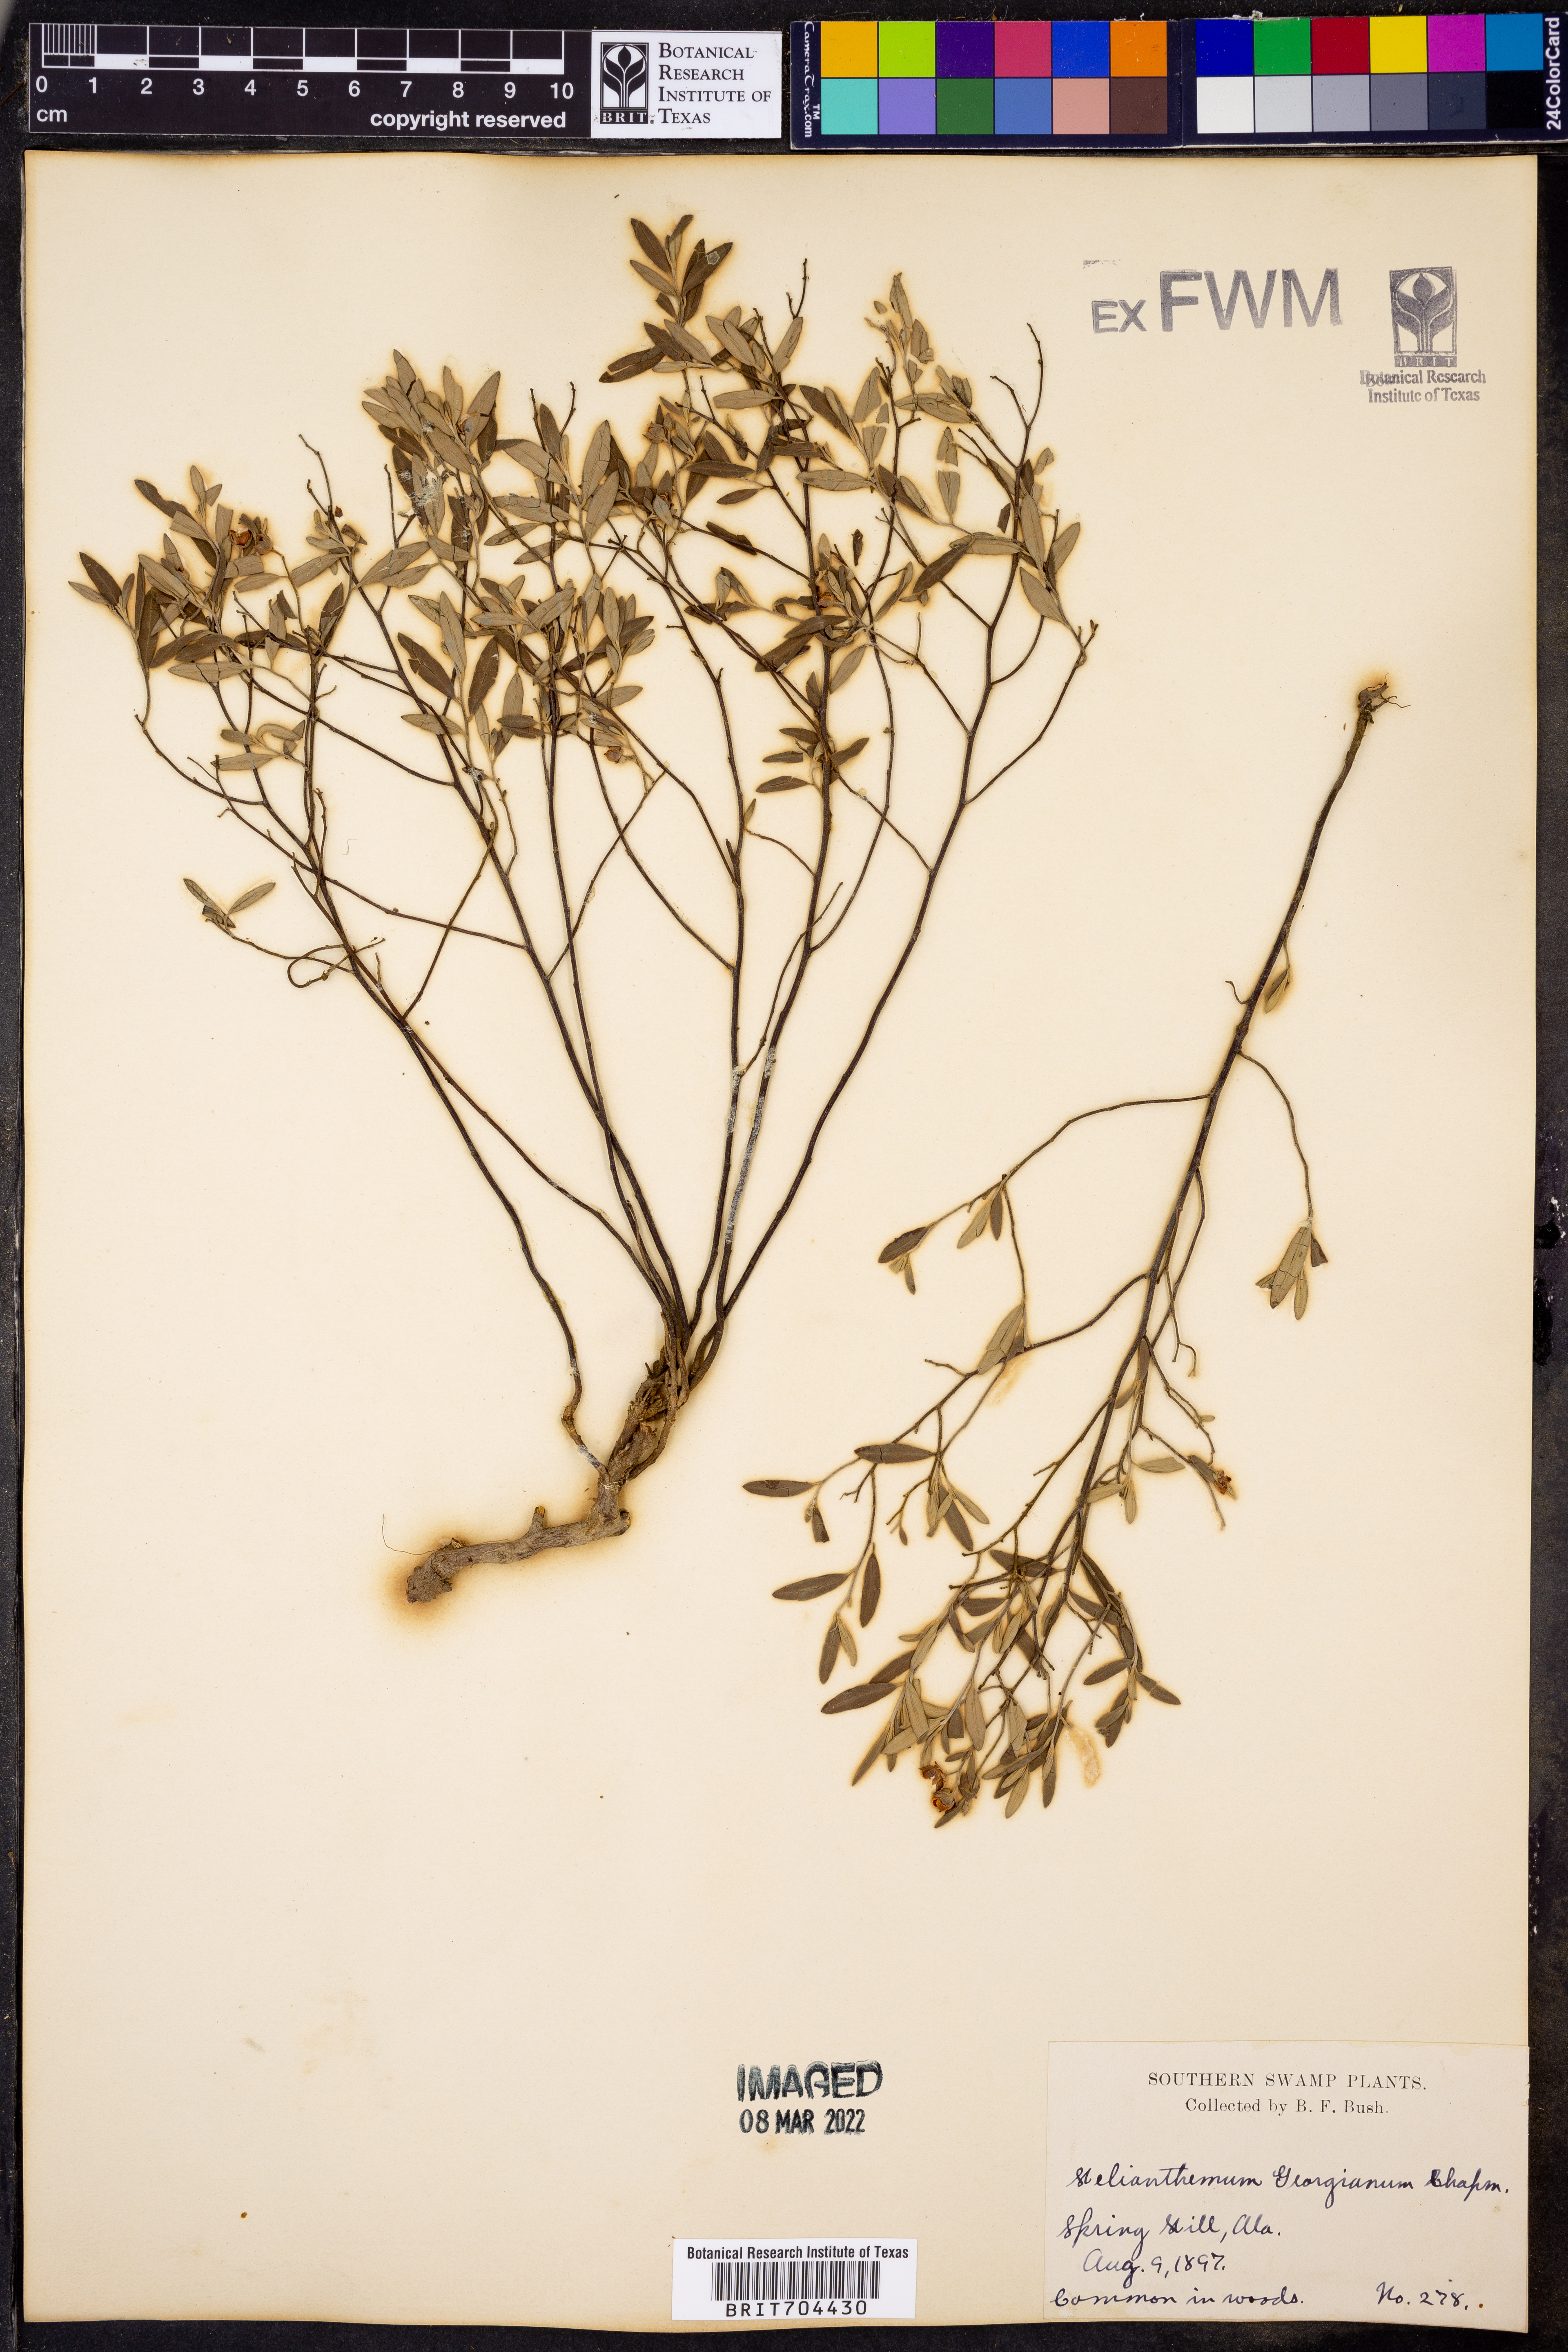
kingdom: Plantae
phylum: Tracheophyta
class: Magnoliopsida
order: Malvales
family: Cistaceae
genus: Crocanthemum
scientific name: Crocanthemum georgianum
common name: Georgia frostweed
